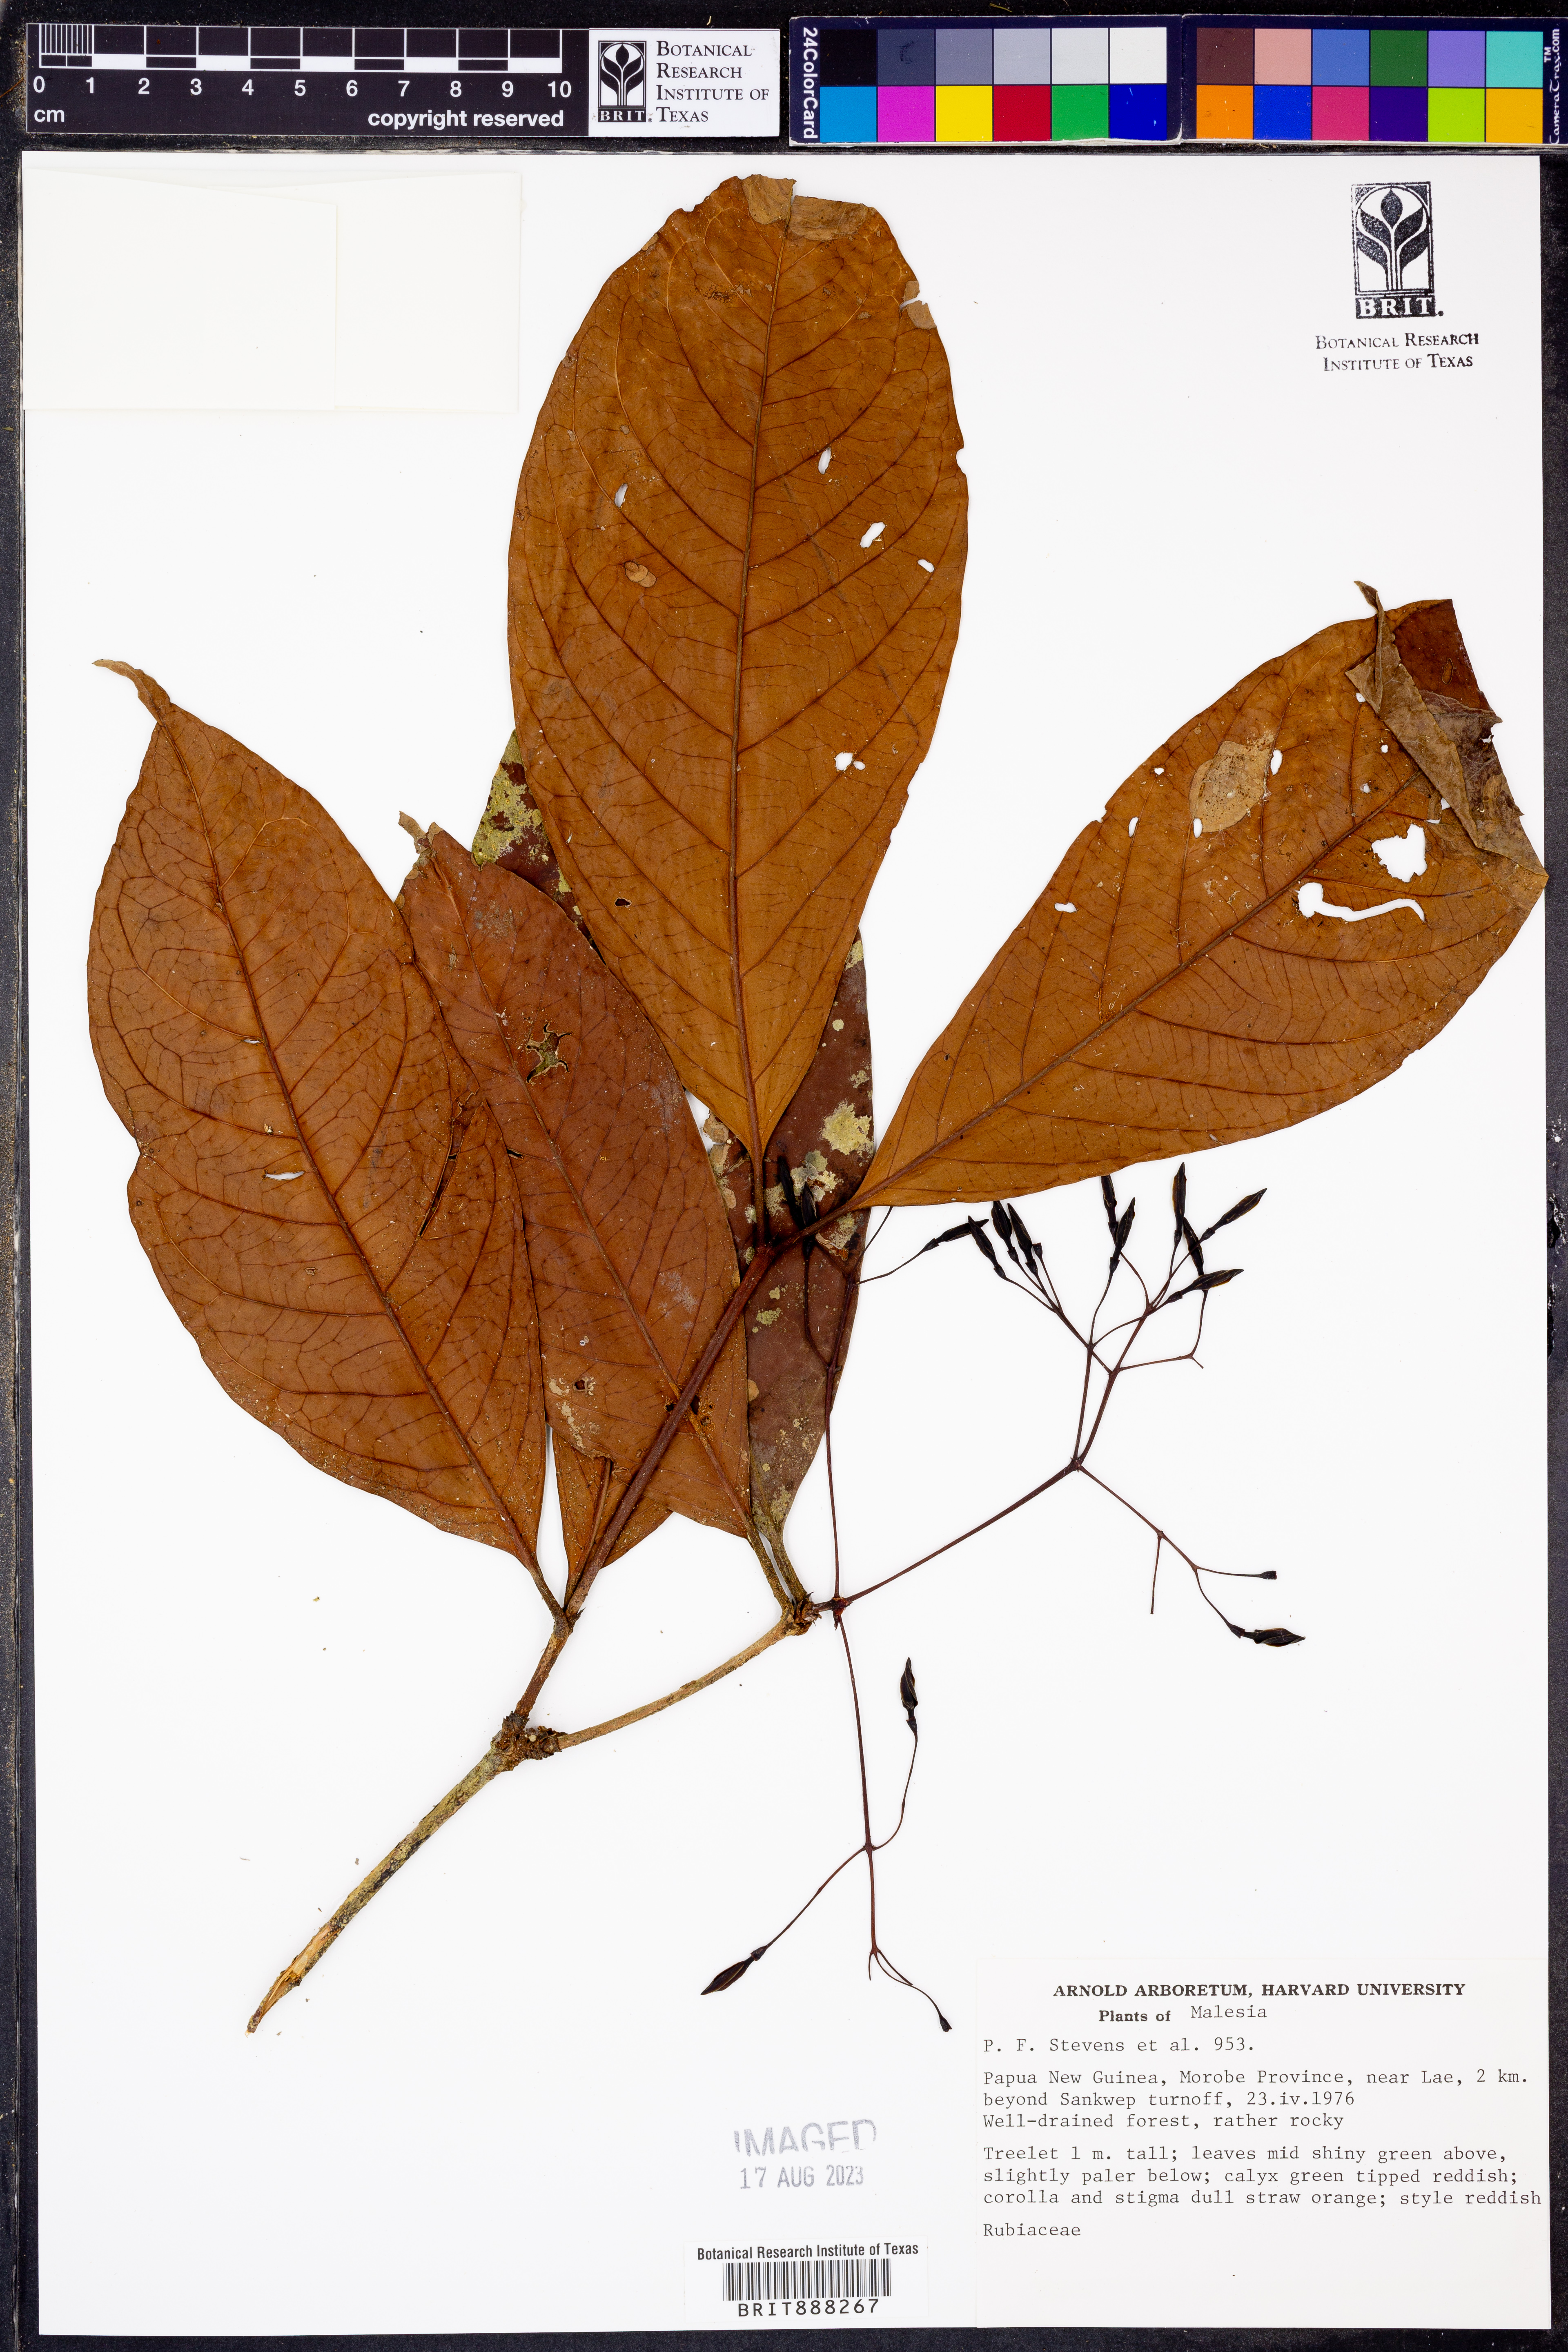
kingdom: Plantae
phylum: Tracheophyta
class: Magnoliopsida
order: Gentianales
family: Rubiaceae
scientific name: Rubiaceae
